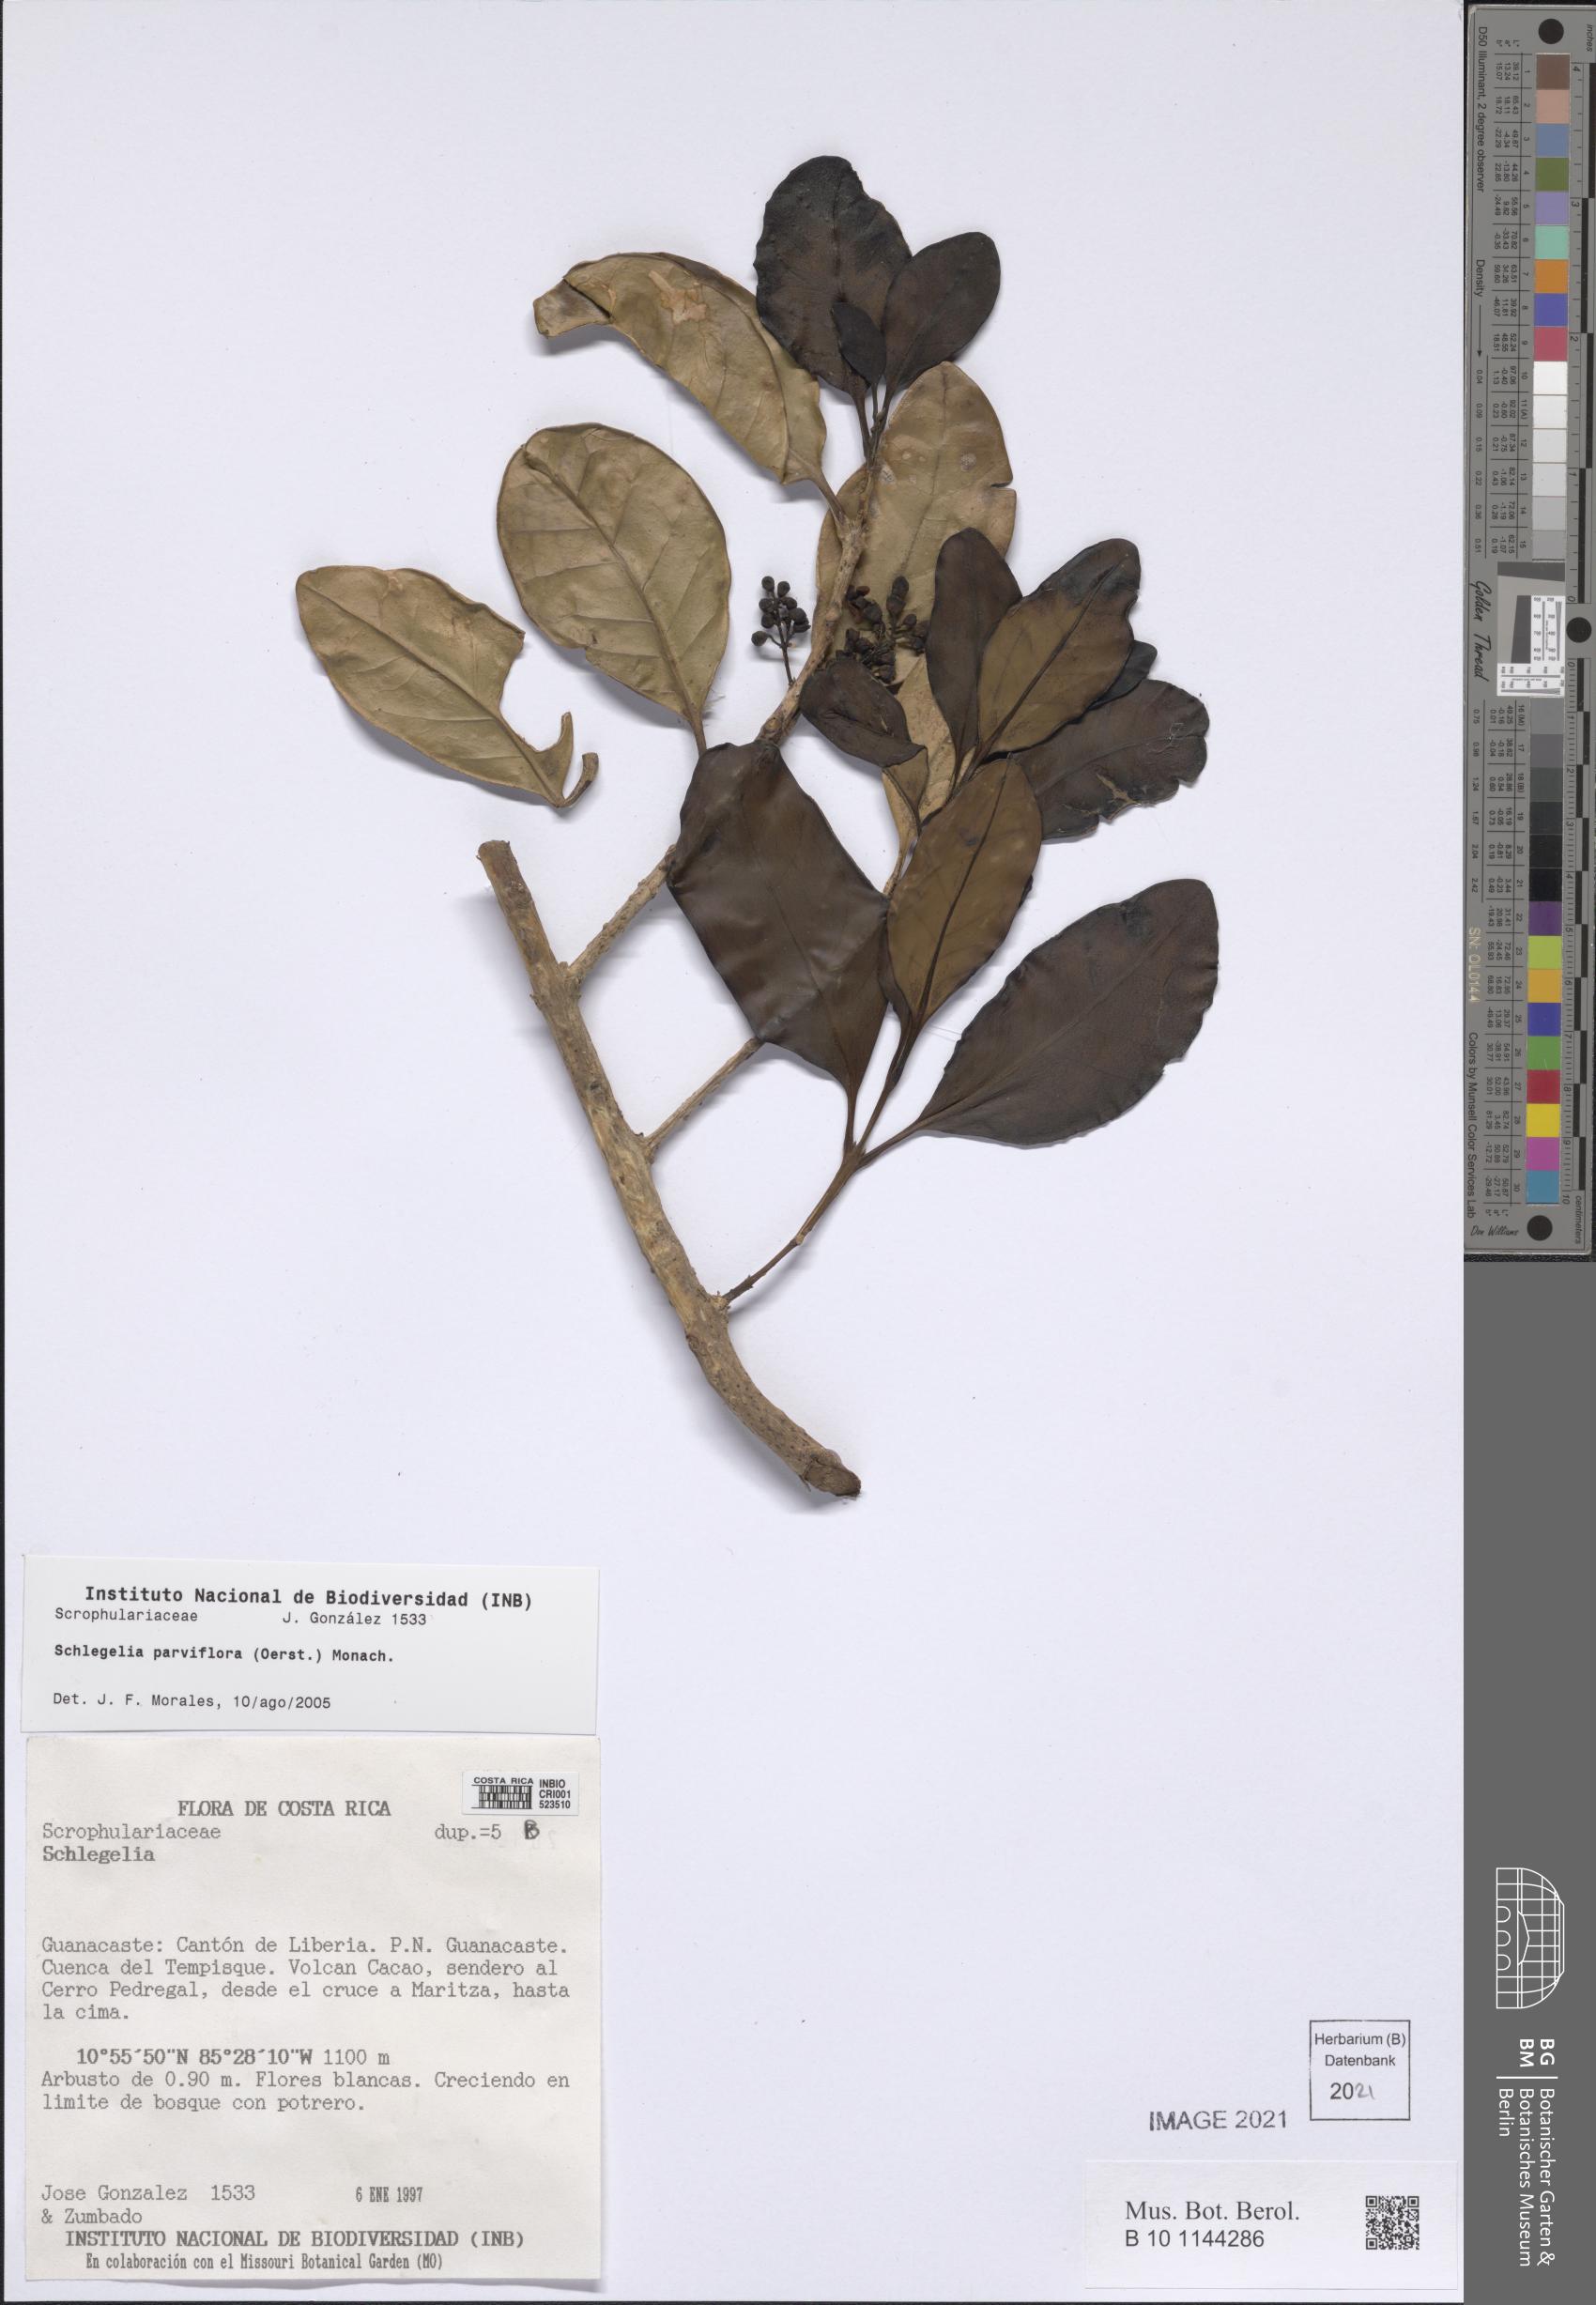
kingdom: Plantae
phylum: Tracheophyta
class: Magnoliopsida
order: Lamiales
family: Schlegeliaceae
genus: Schlegelia
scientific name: Schlegelia parviflora
